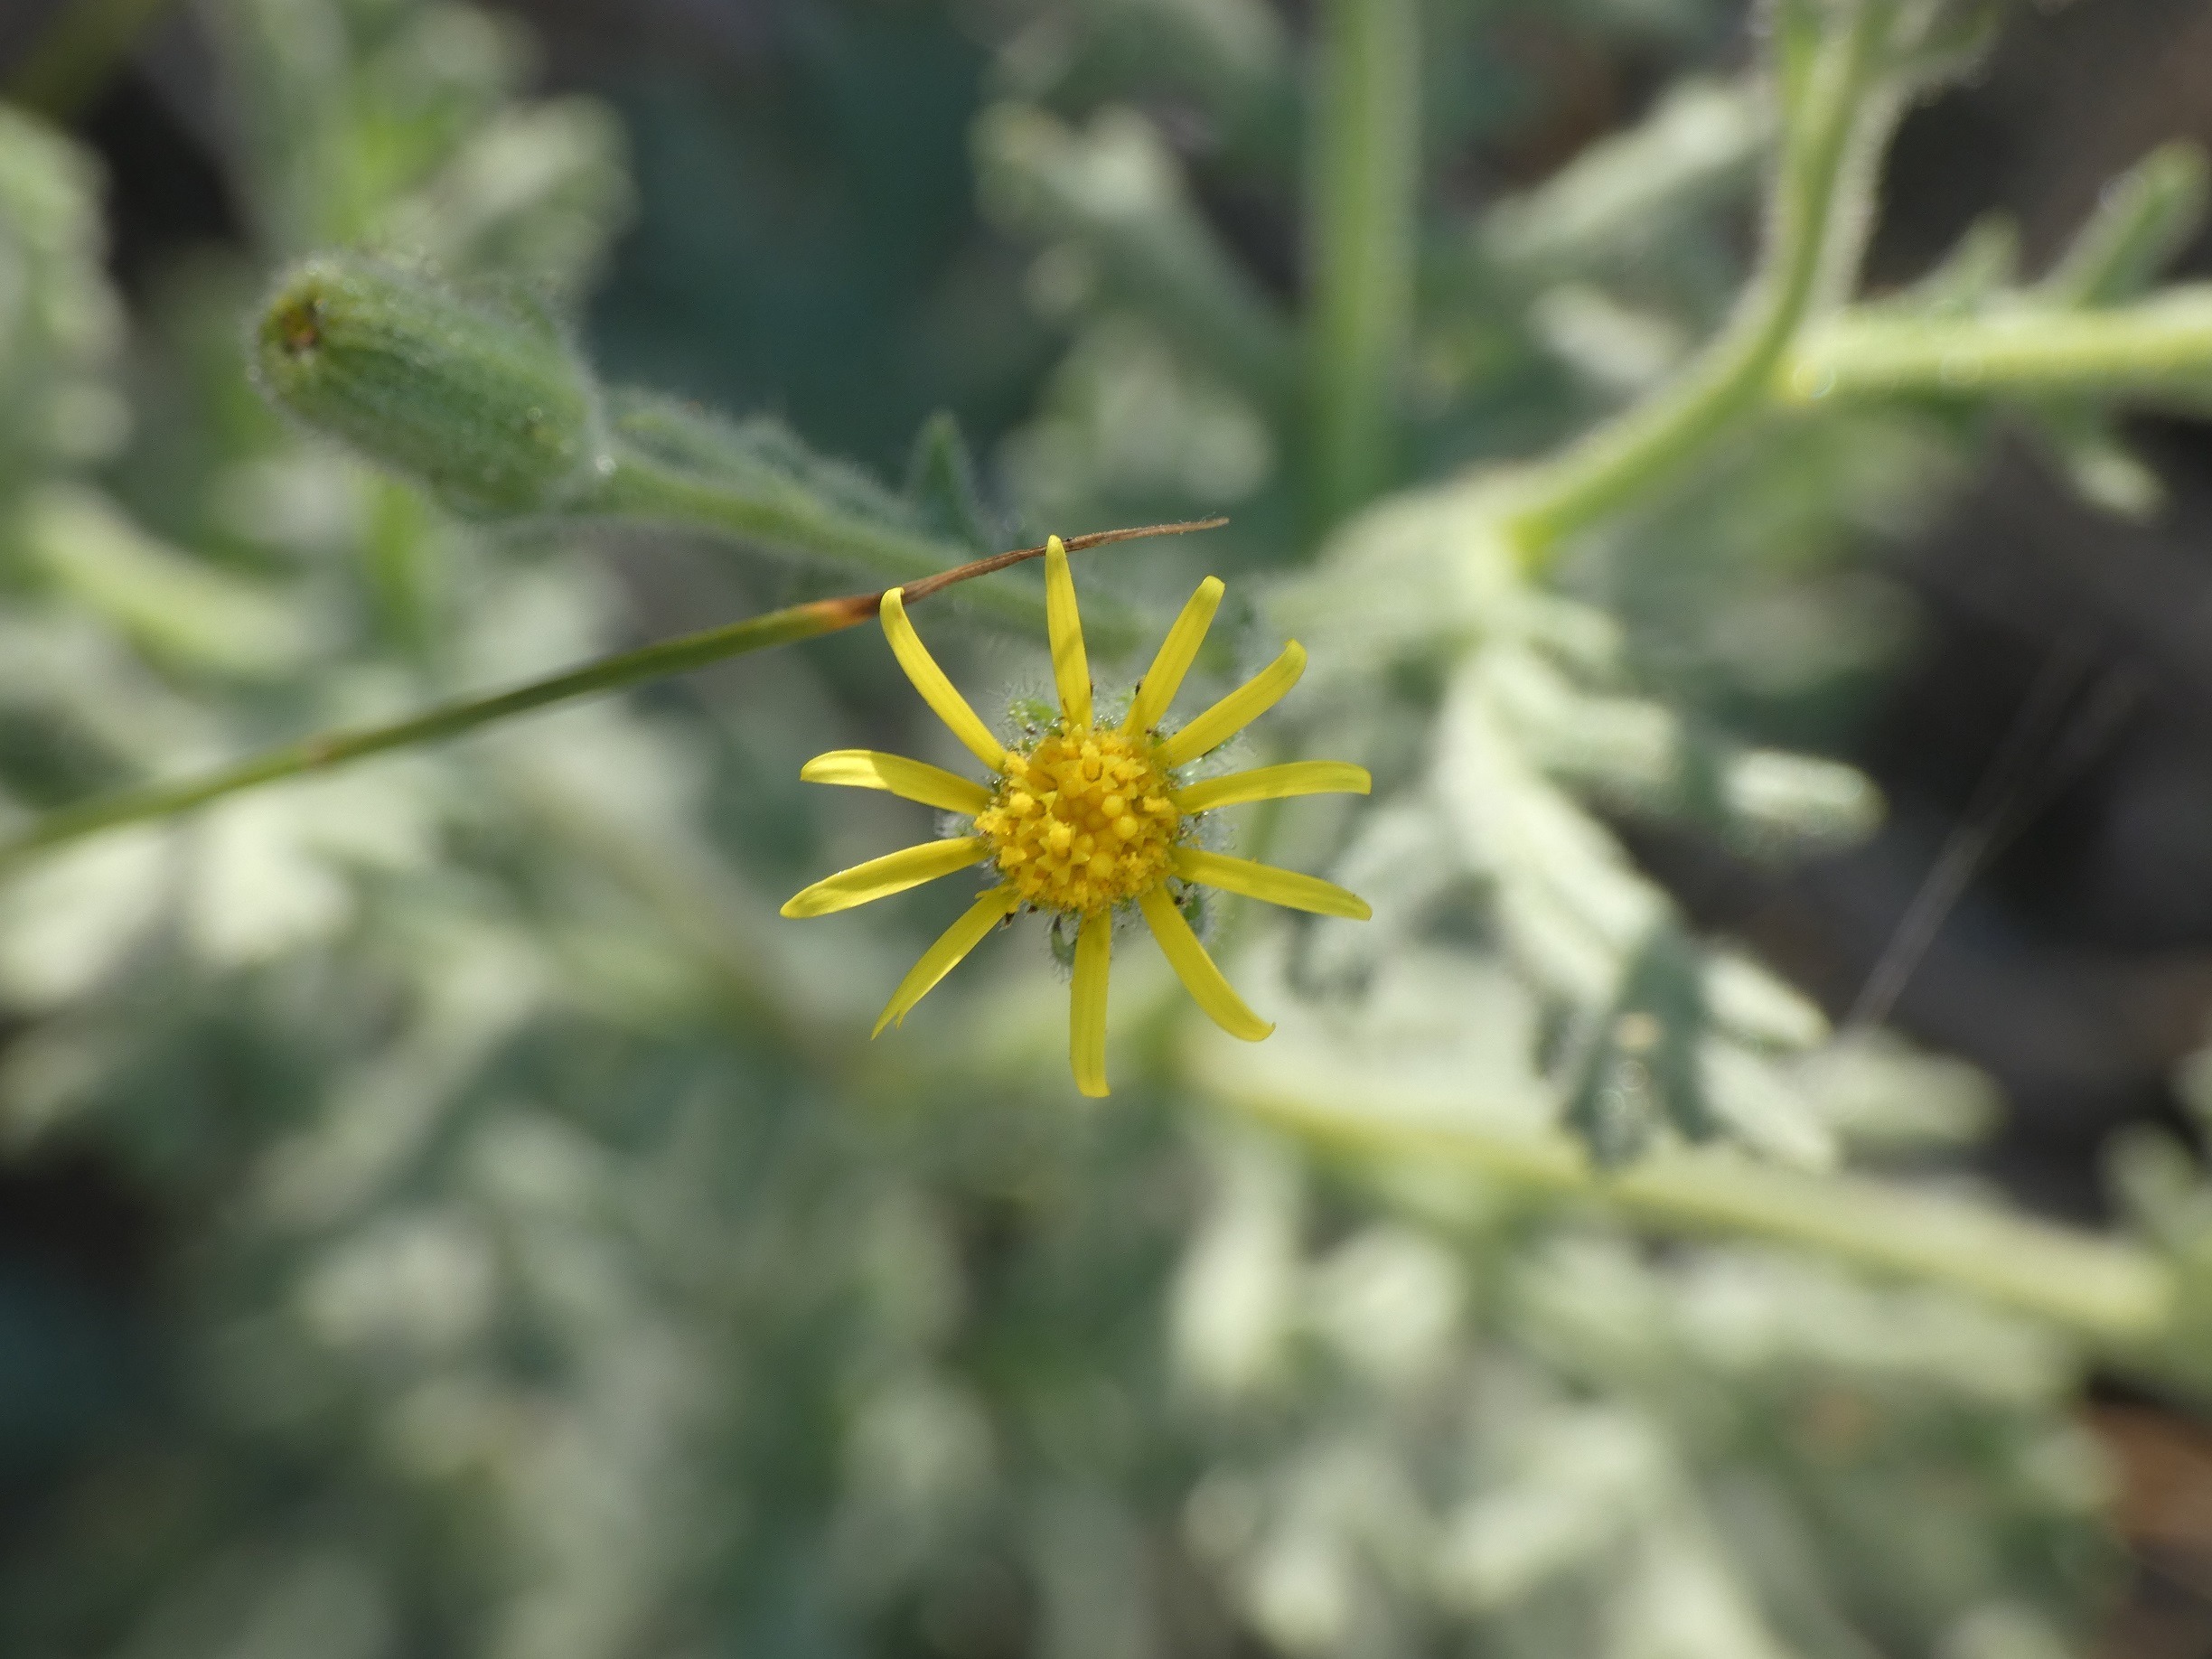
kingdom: Plantae
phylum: Tracheophyta
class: Magnoliopsida
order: Asterales
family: Asteraceae
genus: Senecio
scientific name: Senecio viscosus
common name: Klæbrig brandbæger
